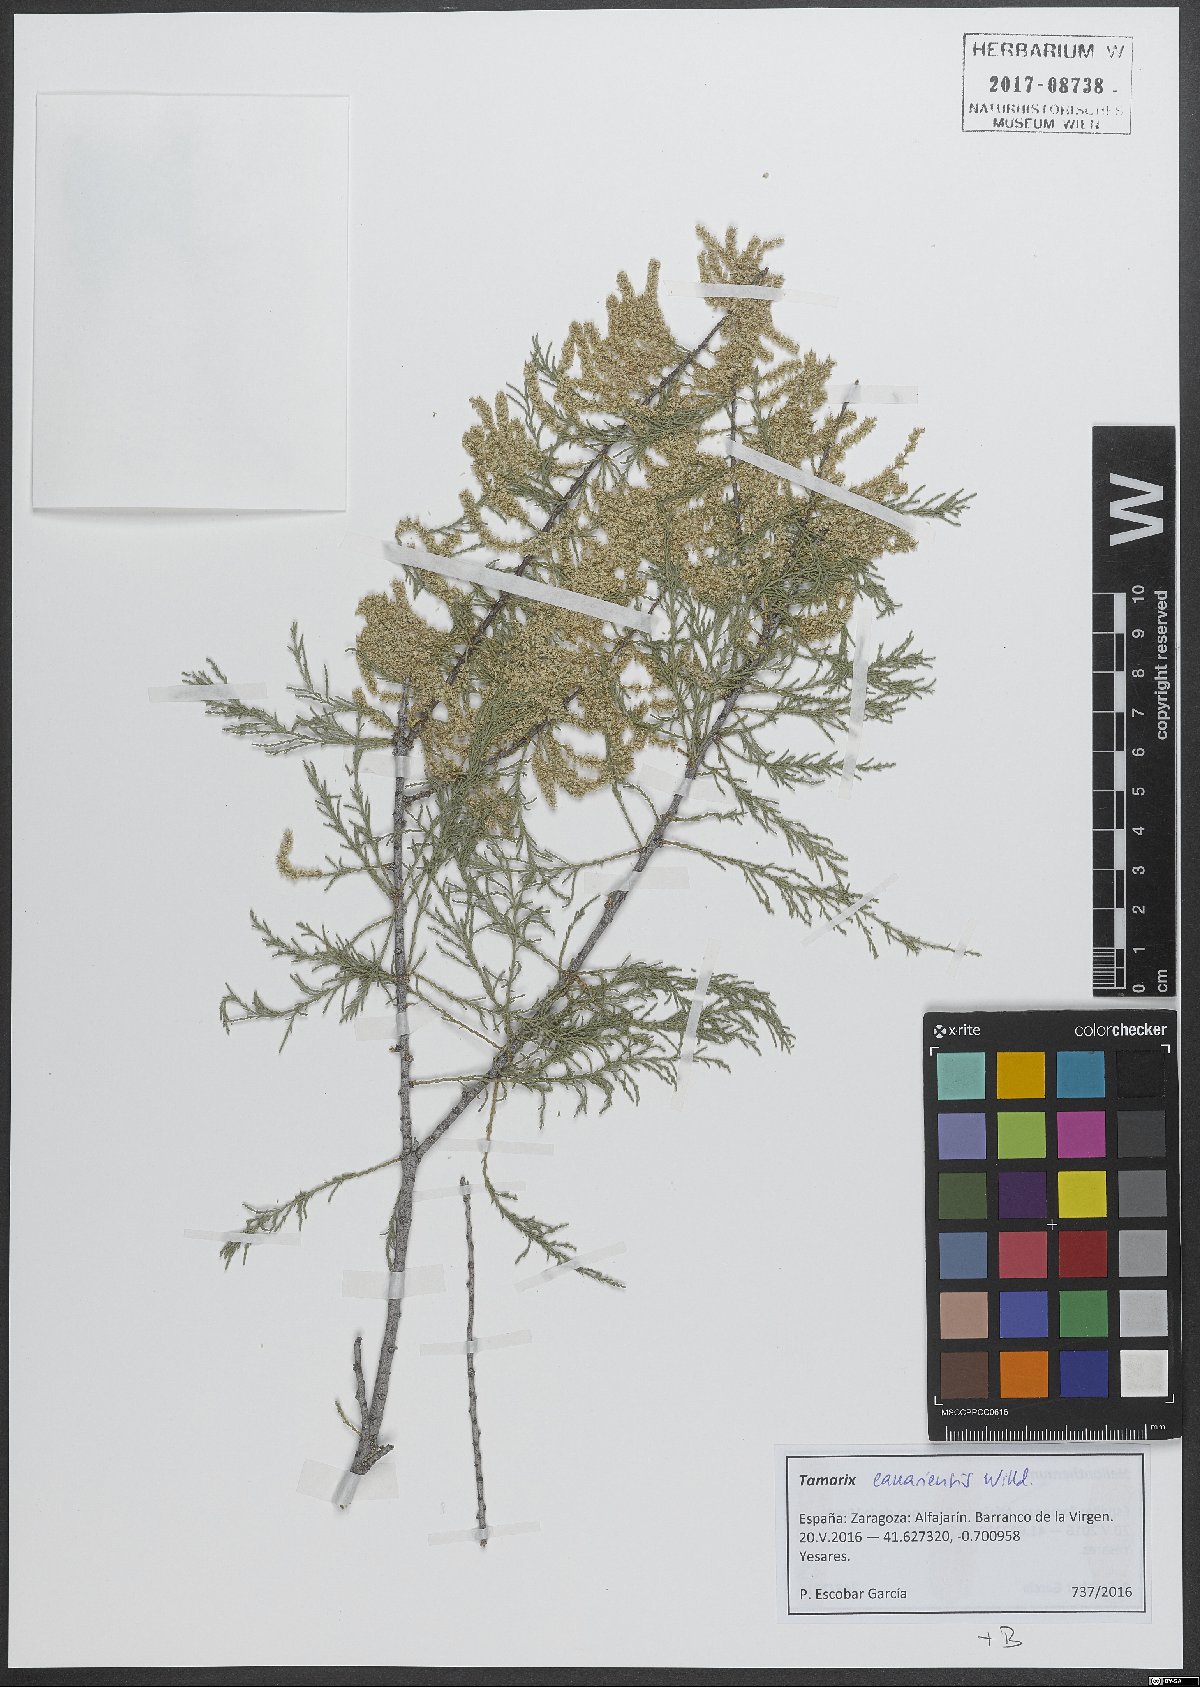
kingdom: Plantae
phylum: Tracheophyta
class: Magnoliopsida
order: Caryophyllales
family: Tamaricaceae
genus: Tamarix
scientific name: Tamarix canariensis
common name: Canary island tamarisk
